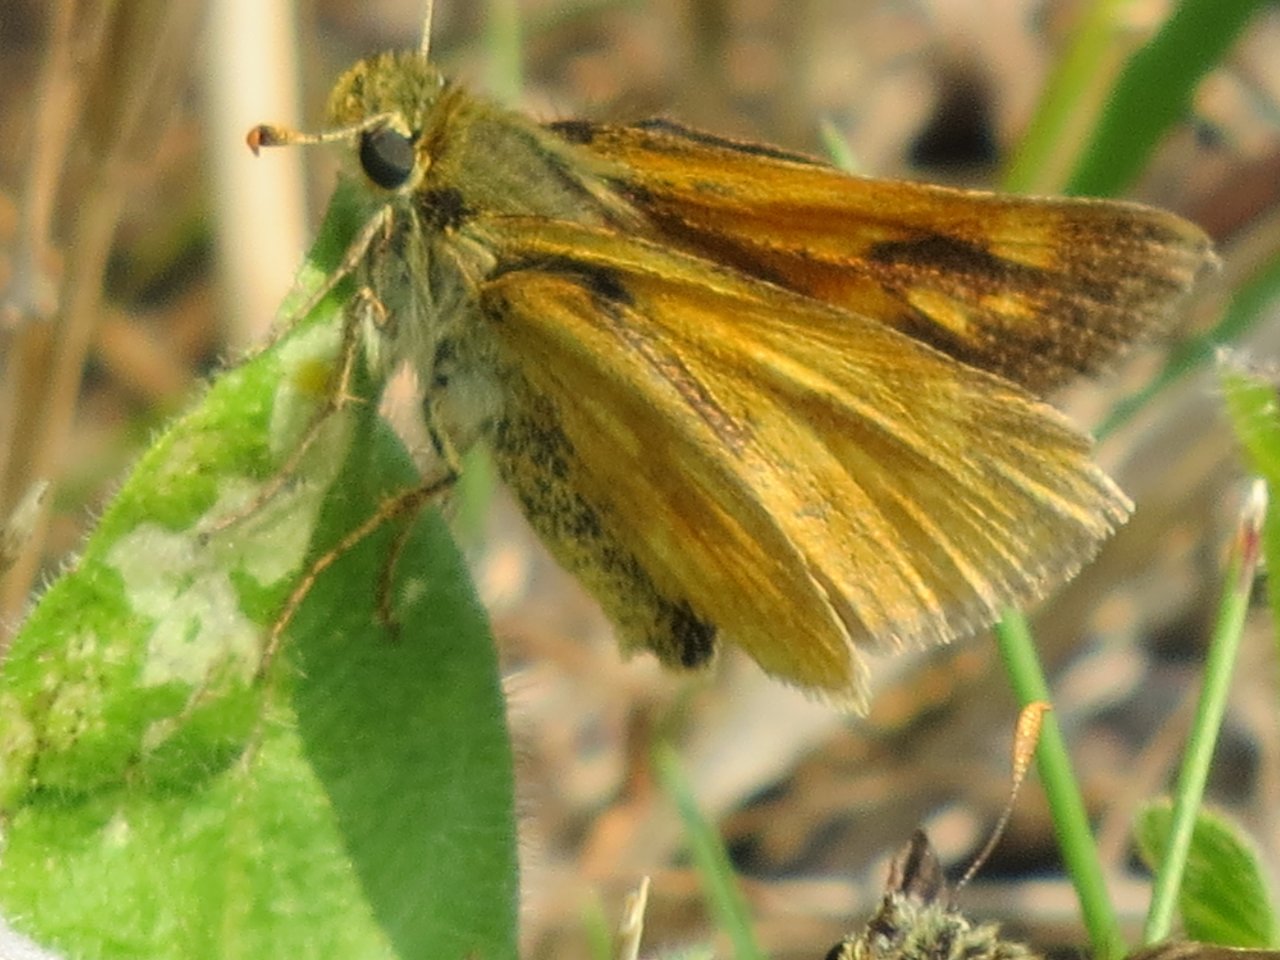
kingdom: Animalia
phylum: Arthropoda
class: Insecta
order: Lepidoptera
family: Hesperiidae
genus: Polites
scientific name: Polites
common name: Long Dash Skipper
